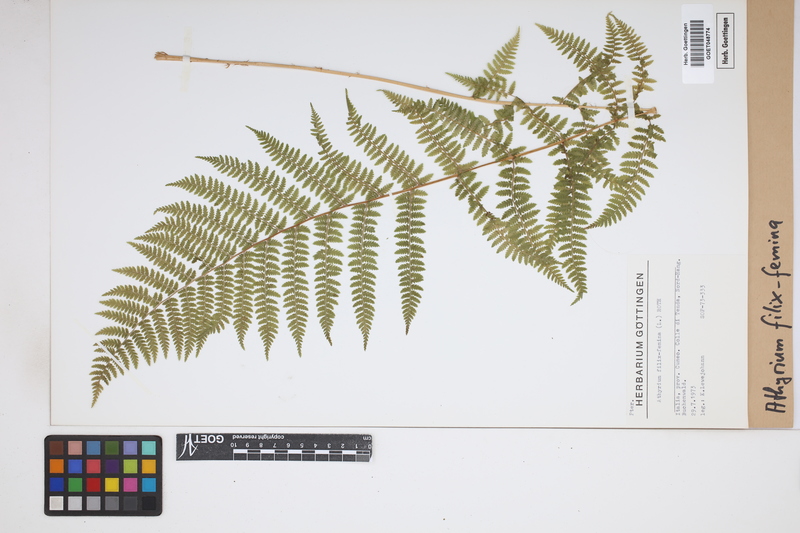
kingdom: Plantae
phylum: Tracheophyta
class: Polypodiopsida
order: Polypodiales
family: Athyriaceae
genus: Athyrium
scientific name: Athyrium filix-femina
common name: Lady fern
